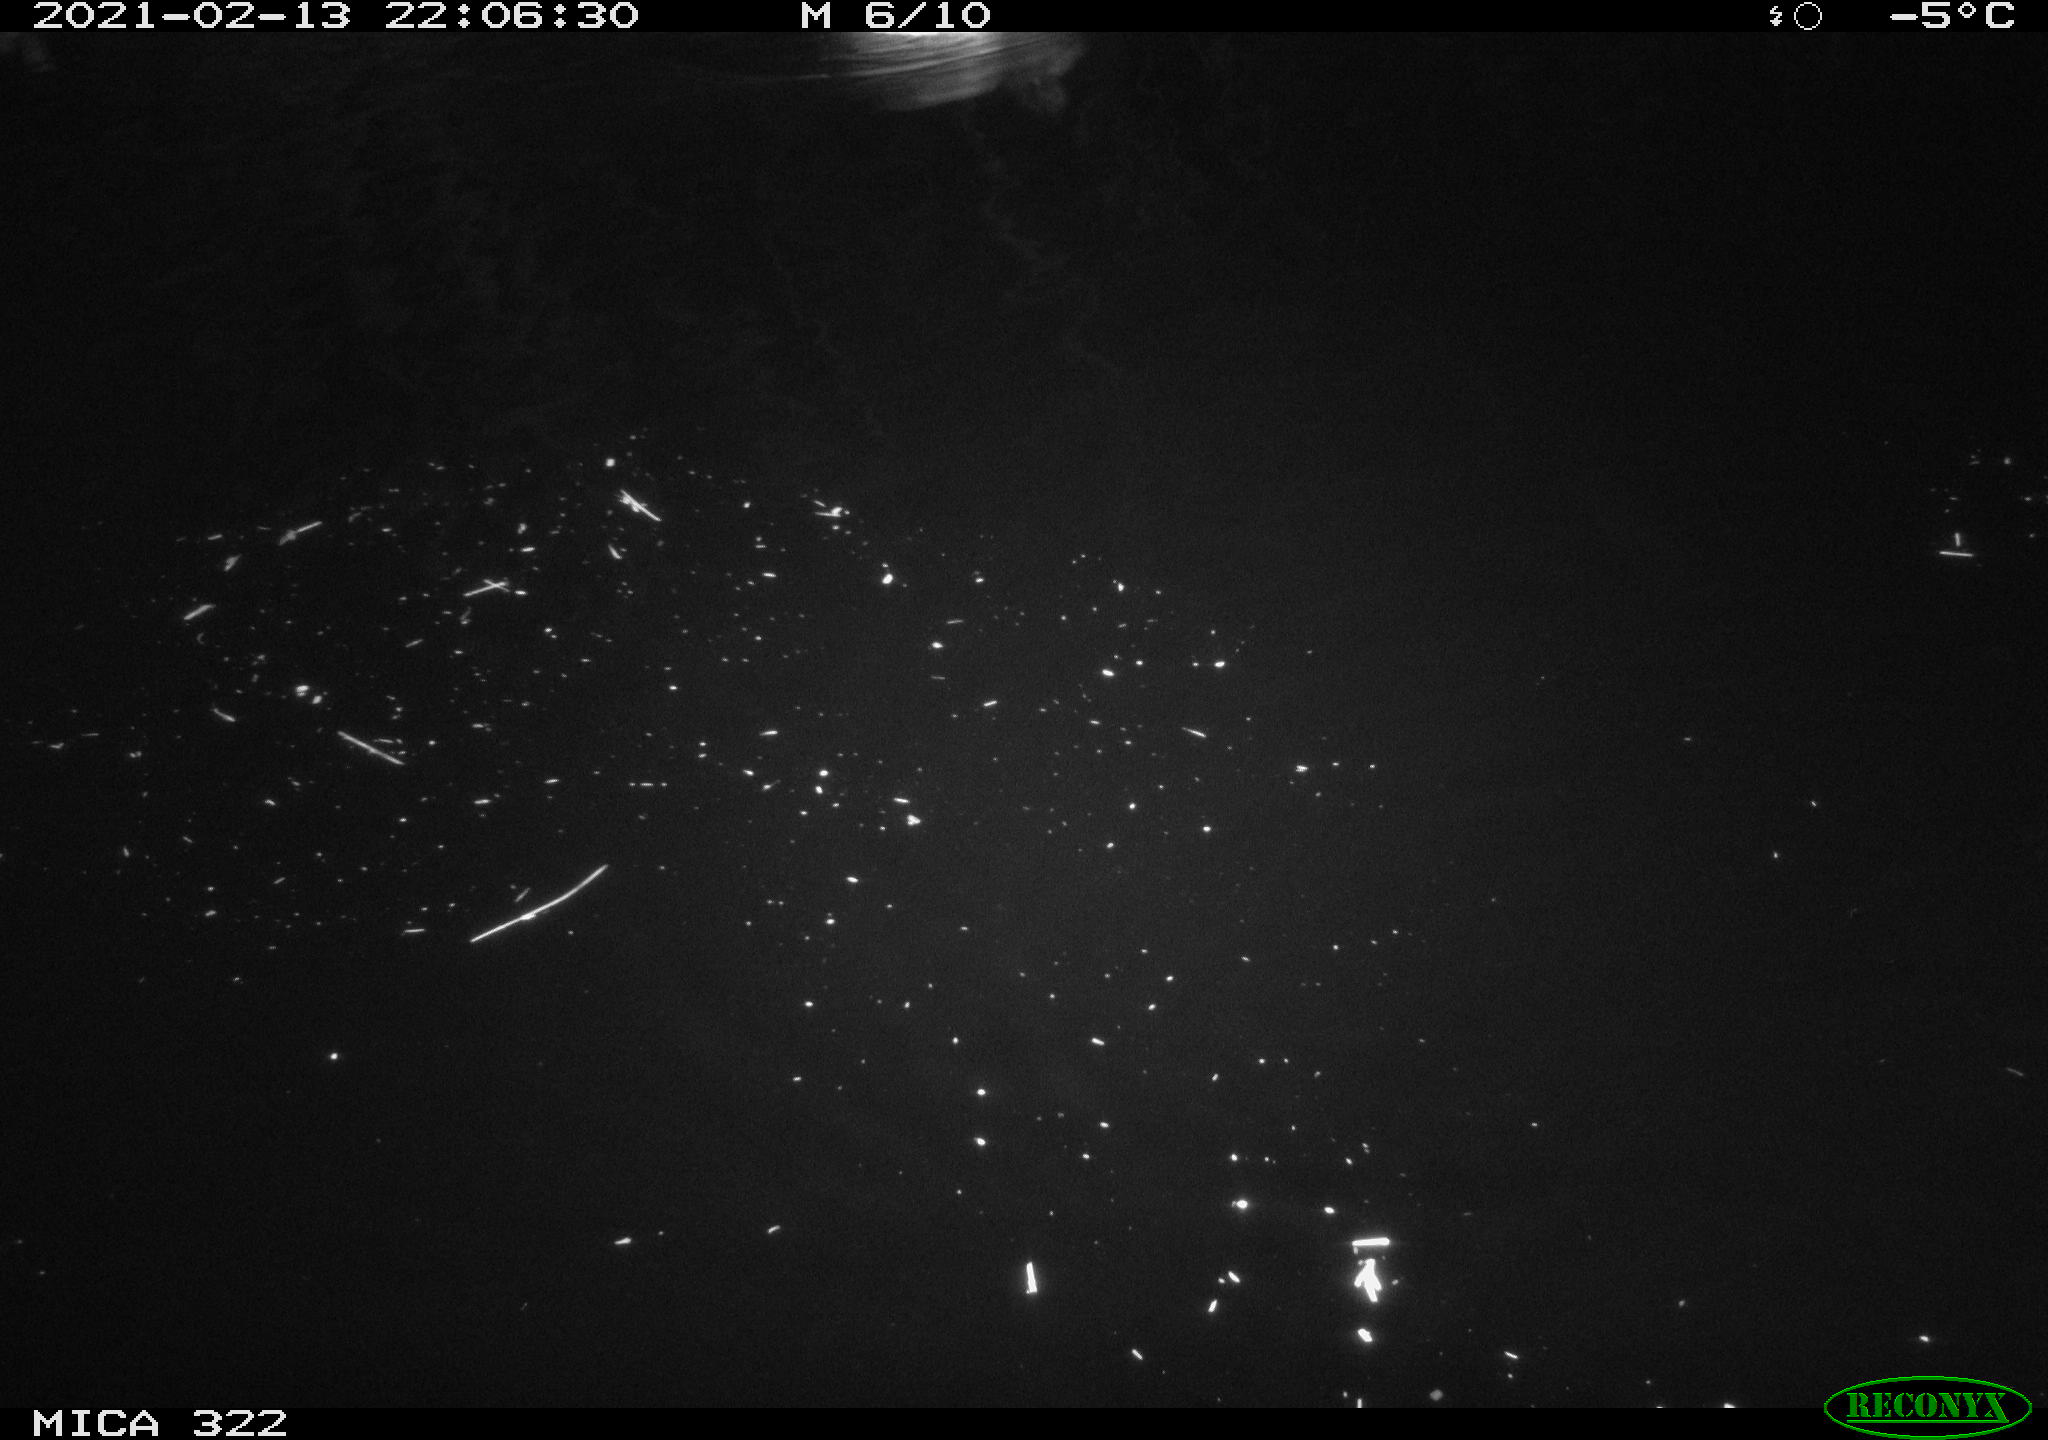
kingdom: Animalia
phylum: Chordata
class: Aves
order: Anseriformes
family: Anatidae
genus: Anas
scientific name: Anas platyrhynchos
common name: Mallard
